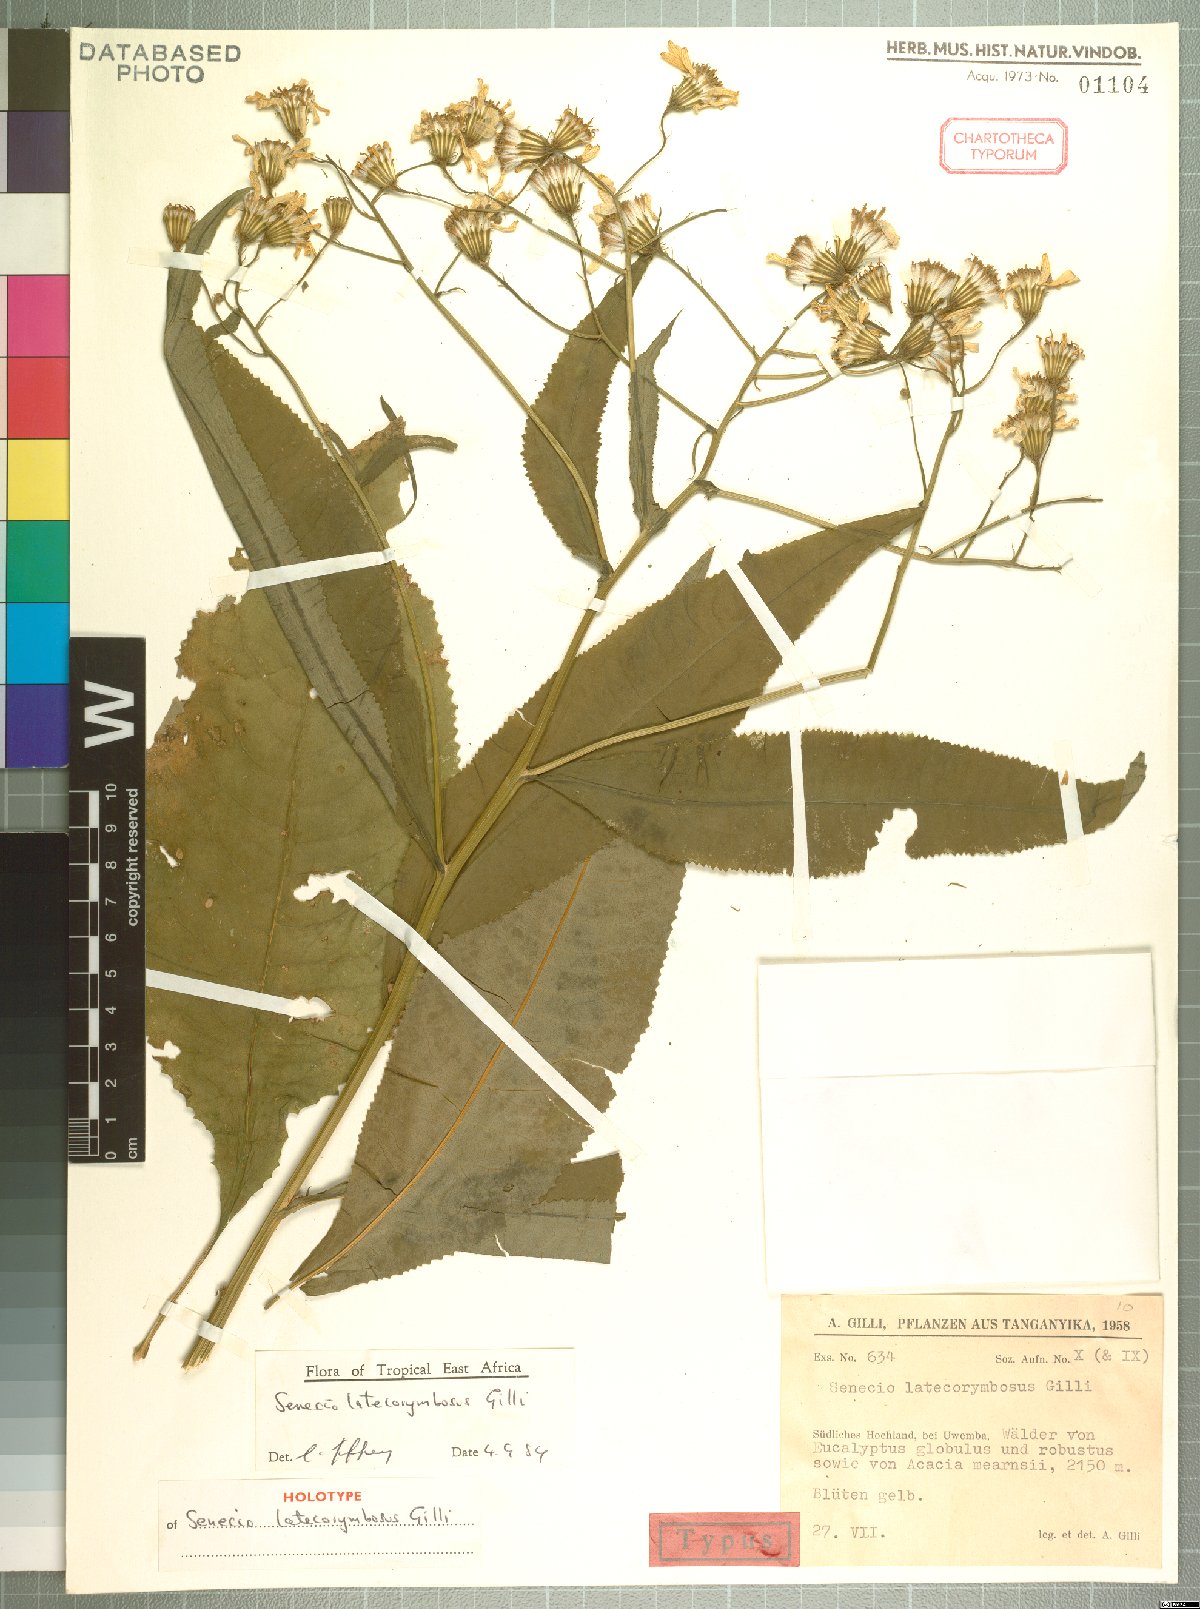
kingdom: Plantae
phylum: Tracheophyta
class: Magnoliopsida
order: Asterales
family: Asteraceae
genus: Senecio
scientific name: Senecio latecorymbosus
